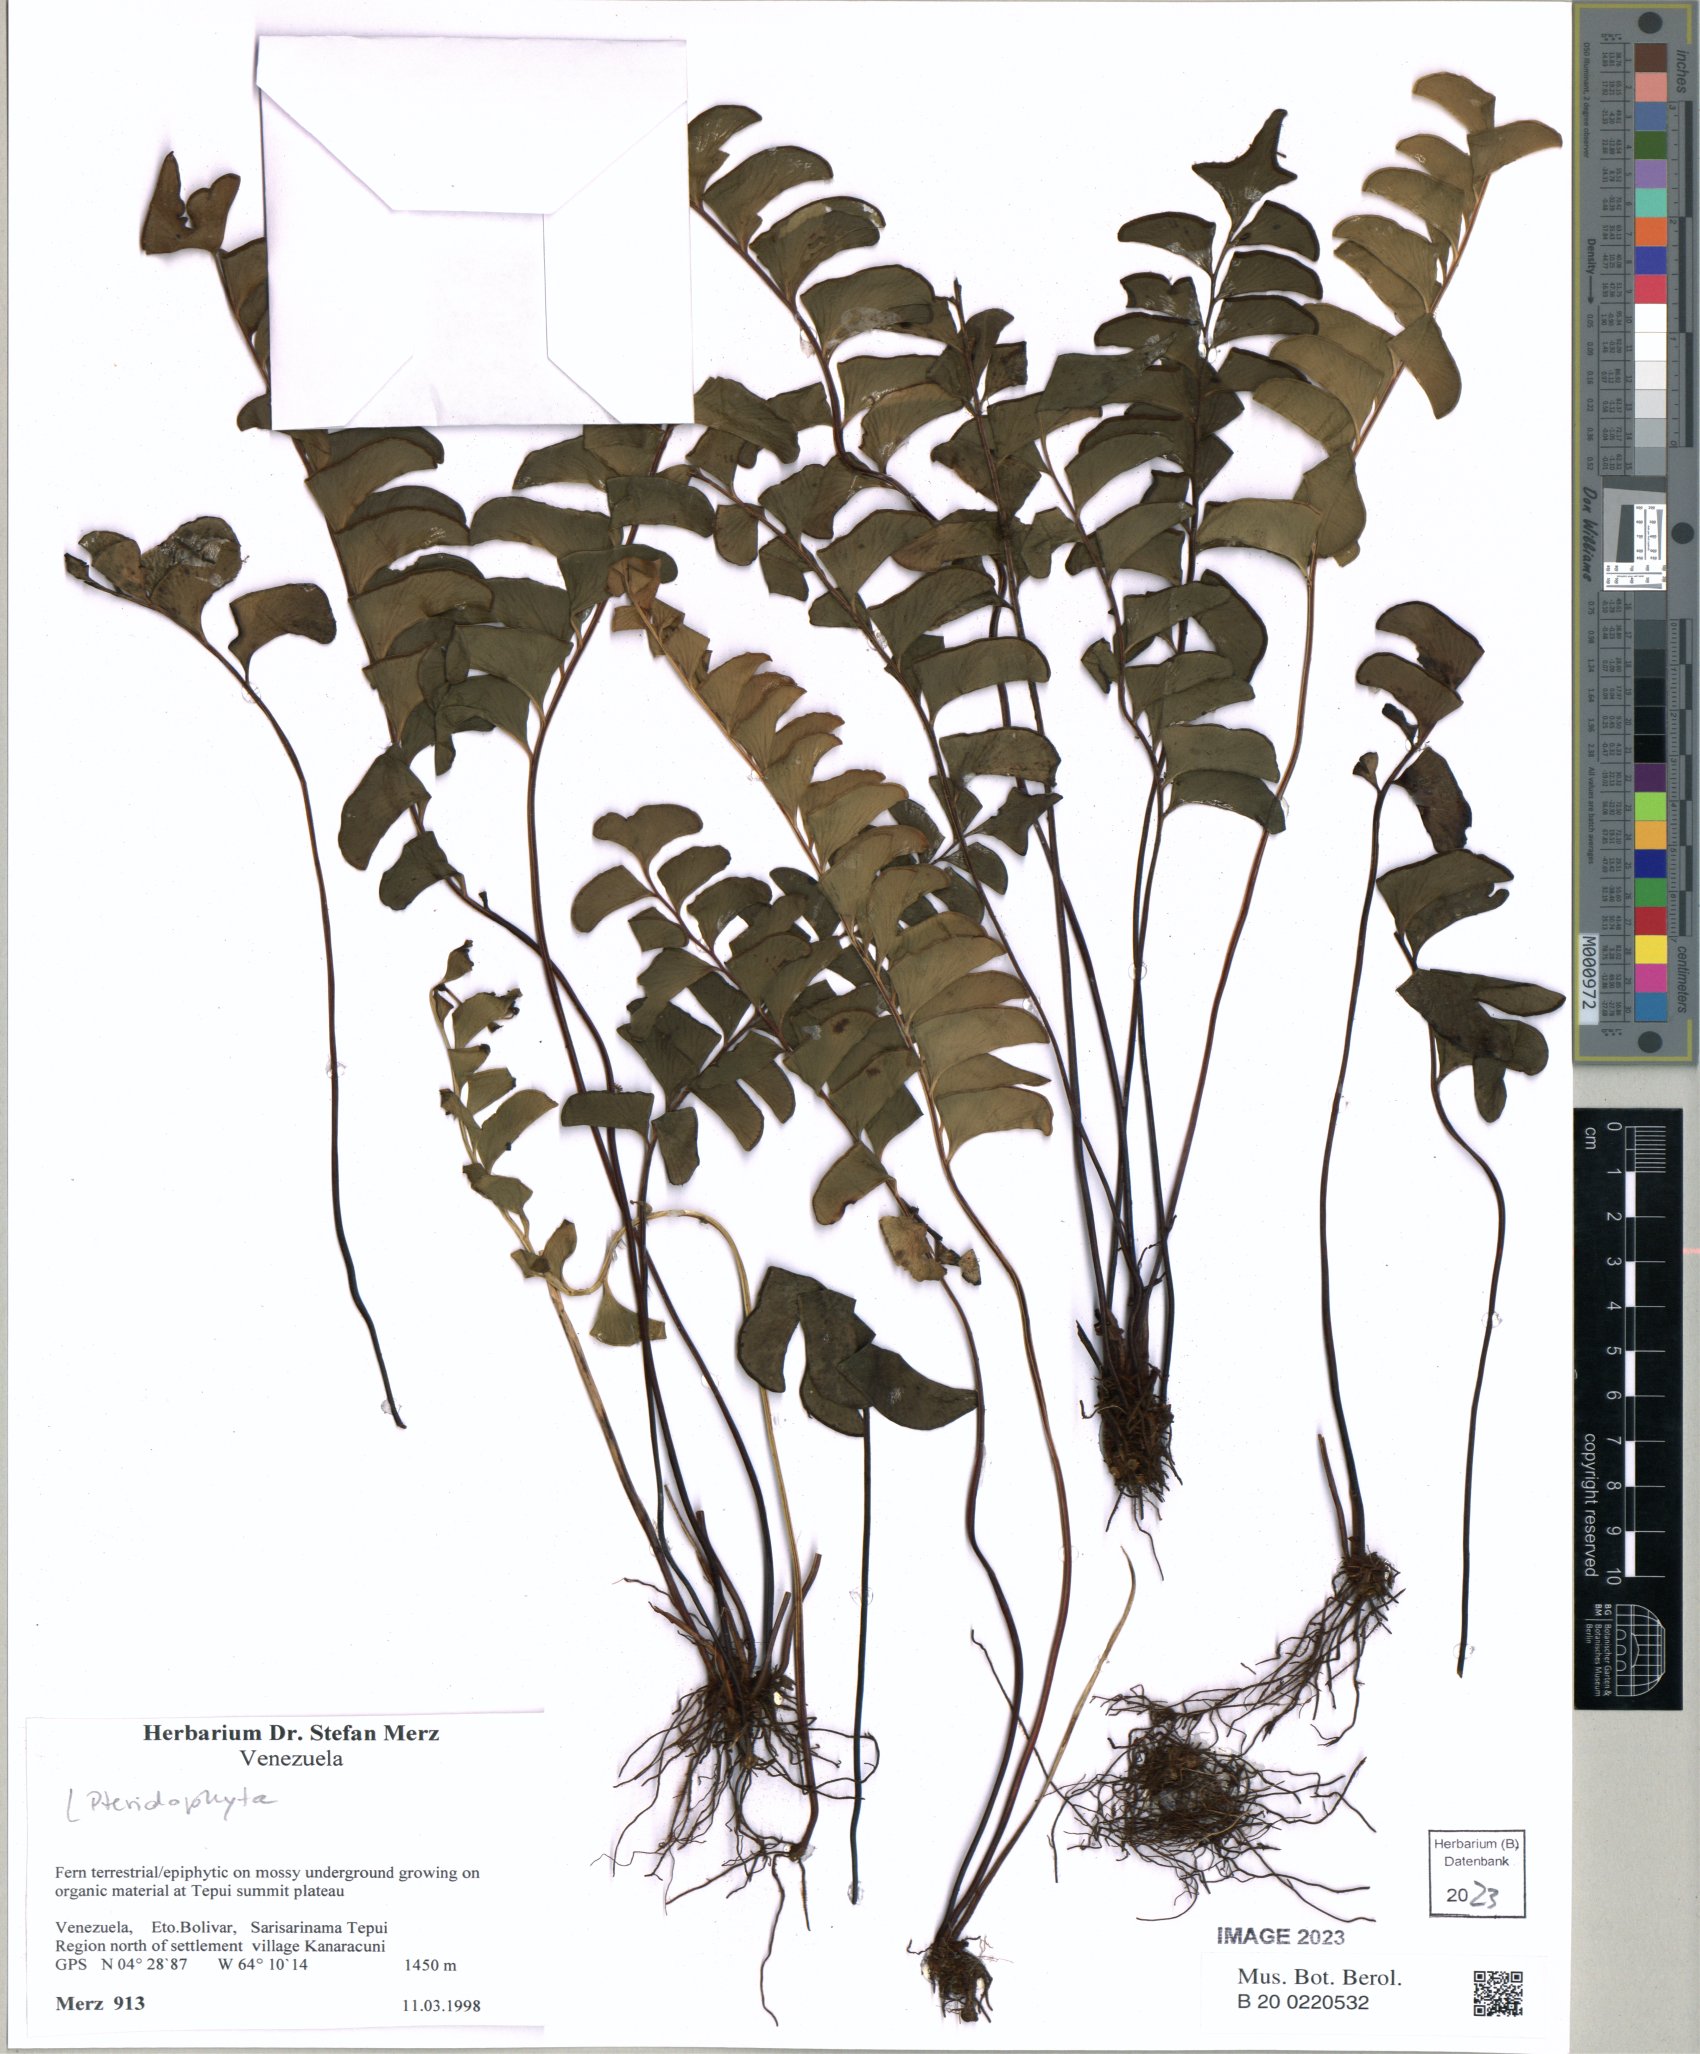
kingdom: Plantae
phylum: Tracheophyta
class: Polypodiopsida
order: Polypodiales
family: Lindsaeaceae
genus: Lindsaea
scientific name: Lindsaea falcata
